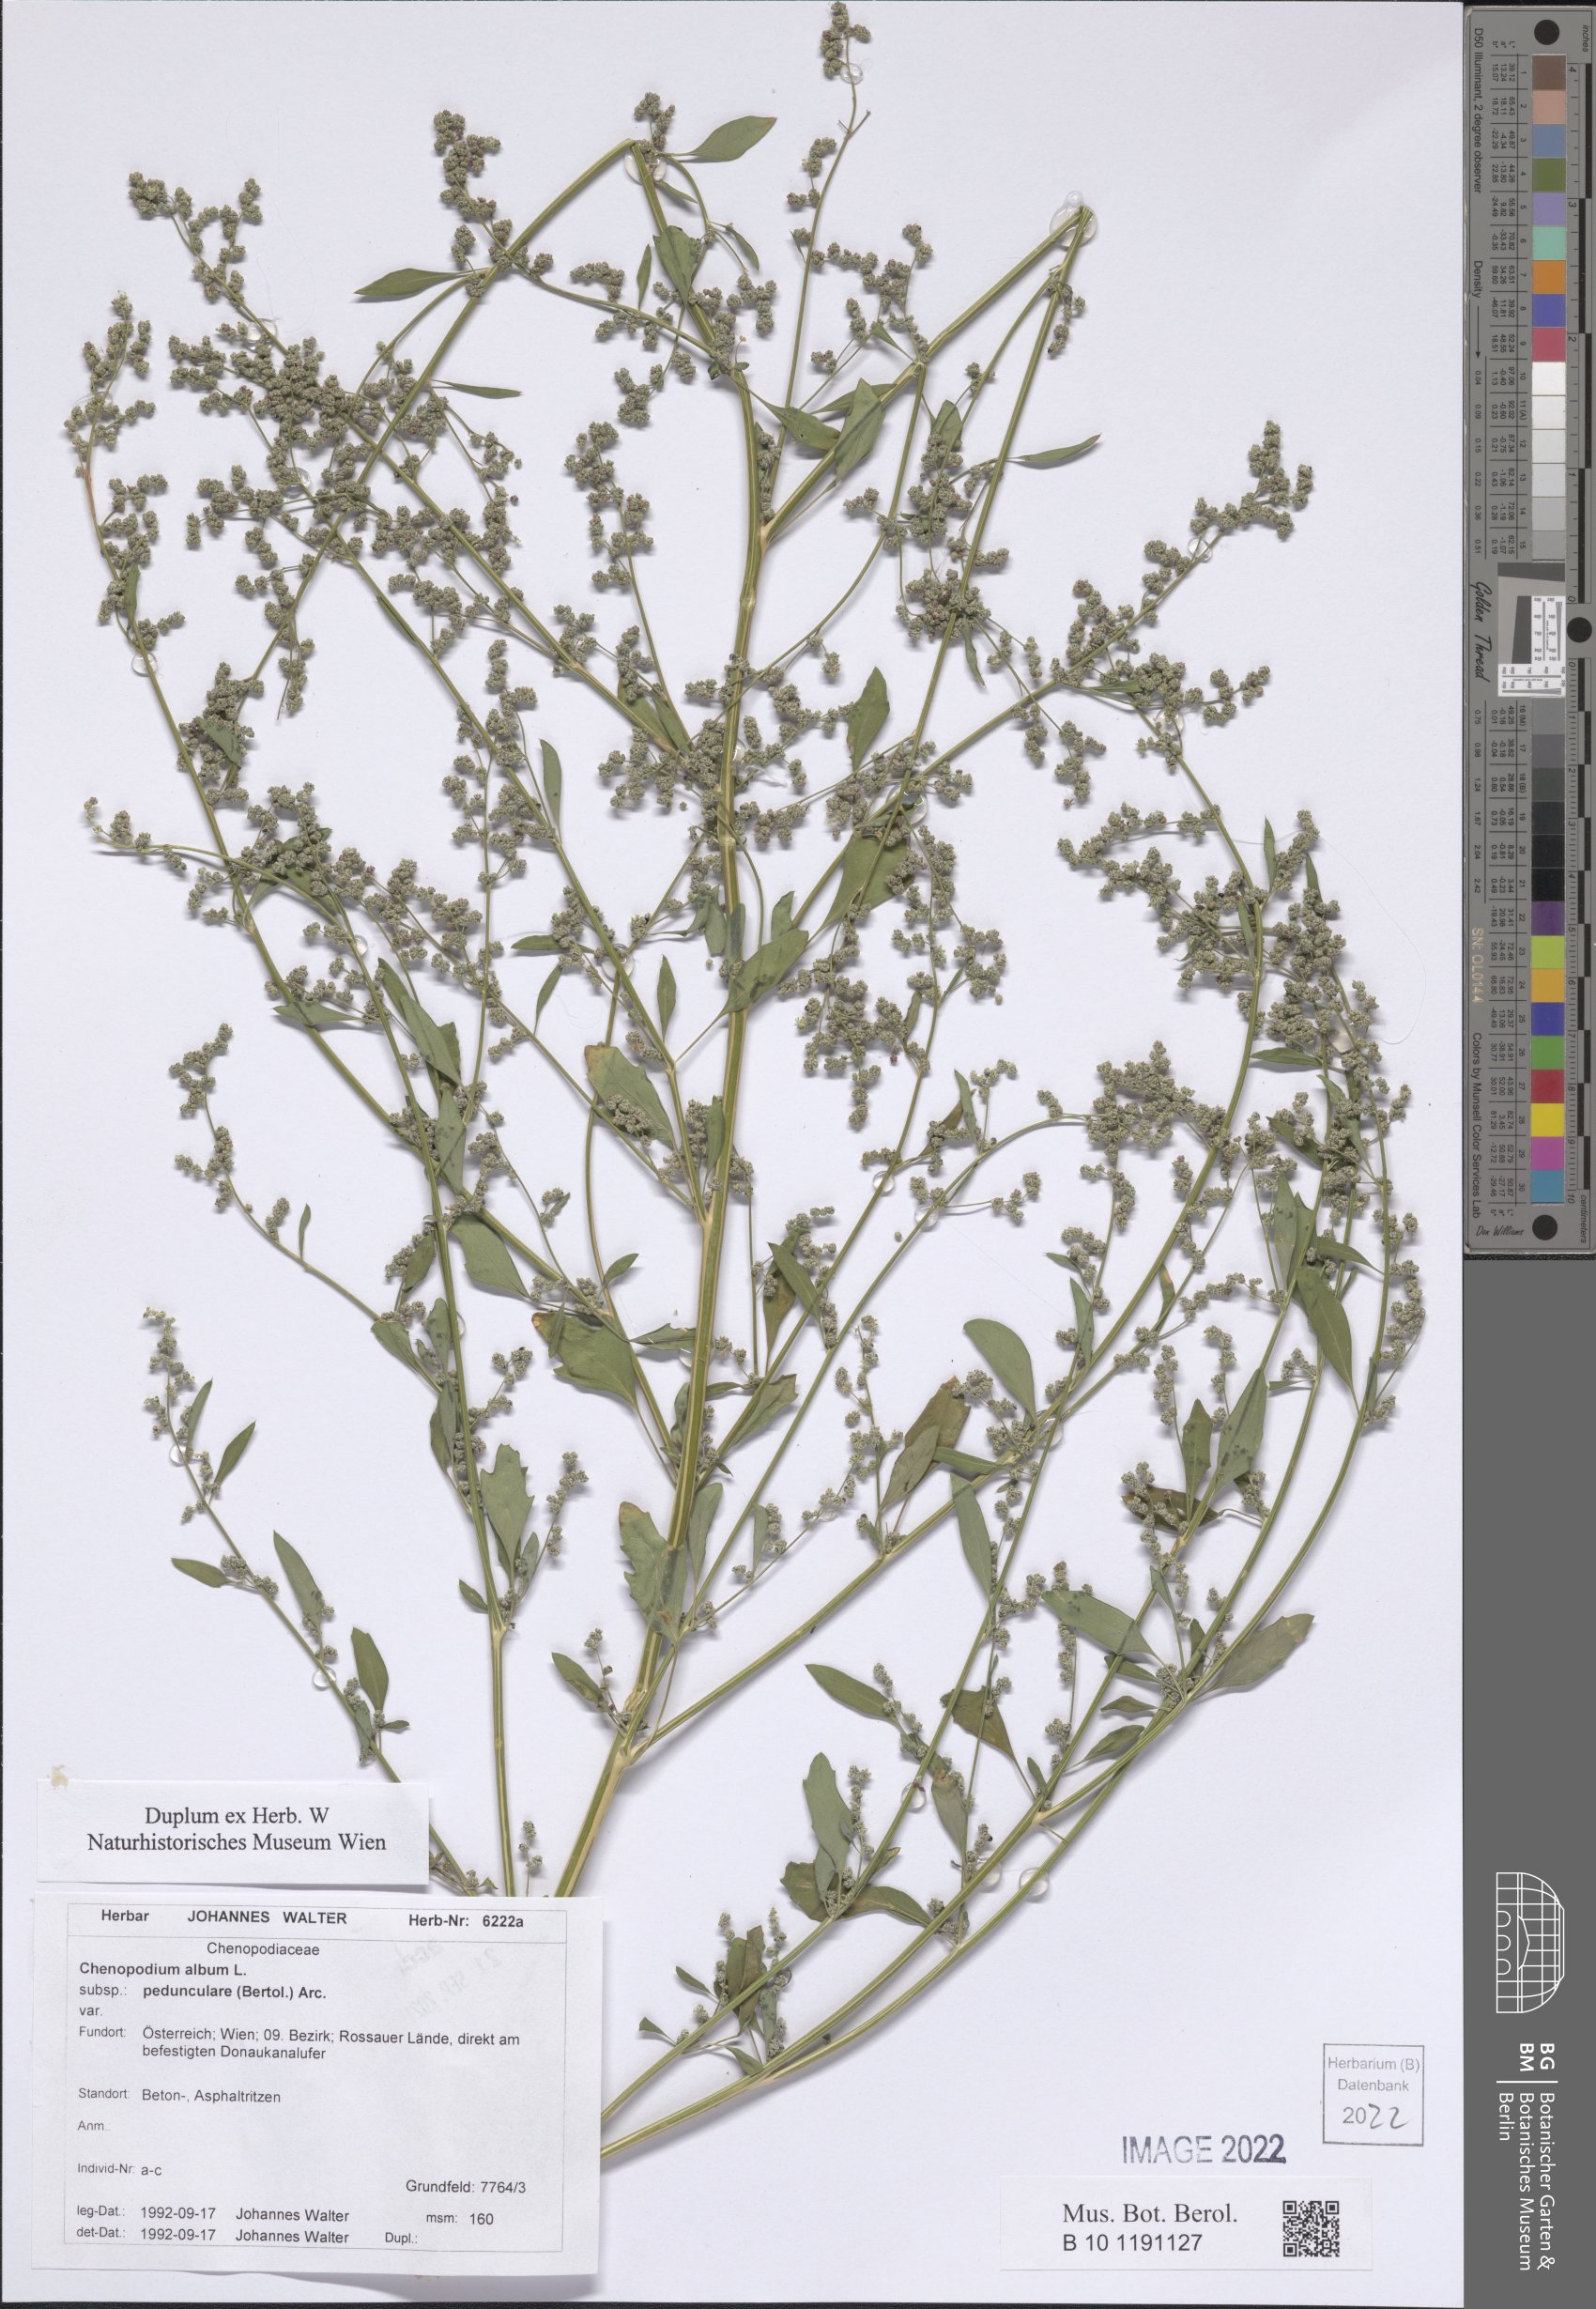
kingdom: Plantae
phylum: Tracheophyta
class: Magnoliopsida
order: Caryophyllales
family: Amaranthaceae
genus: Chenopodium
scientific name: Chenopodium album
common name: Fat-hen
